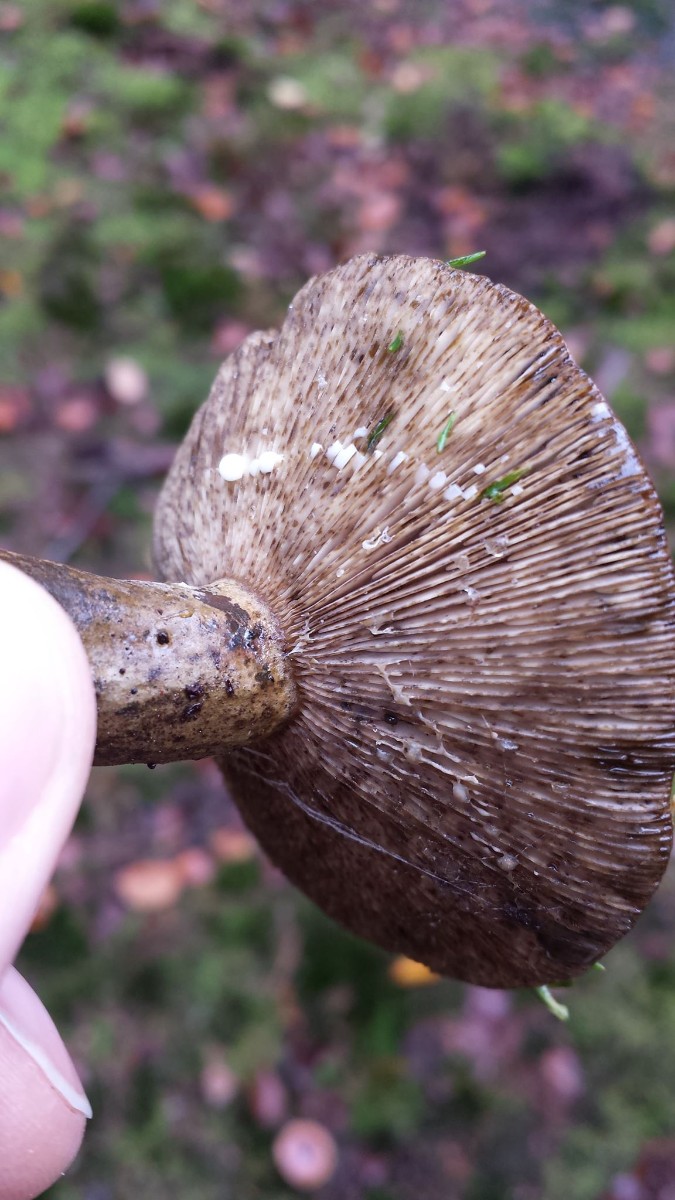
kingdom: Fungi
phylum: Basidiomycota
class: Agaricomycetes
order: Russulales
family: Russulaceae
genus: Lactarius
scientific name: Lactarius necator
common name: manddraber-mælkehat
